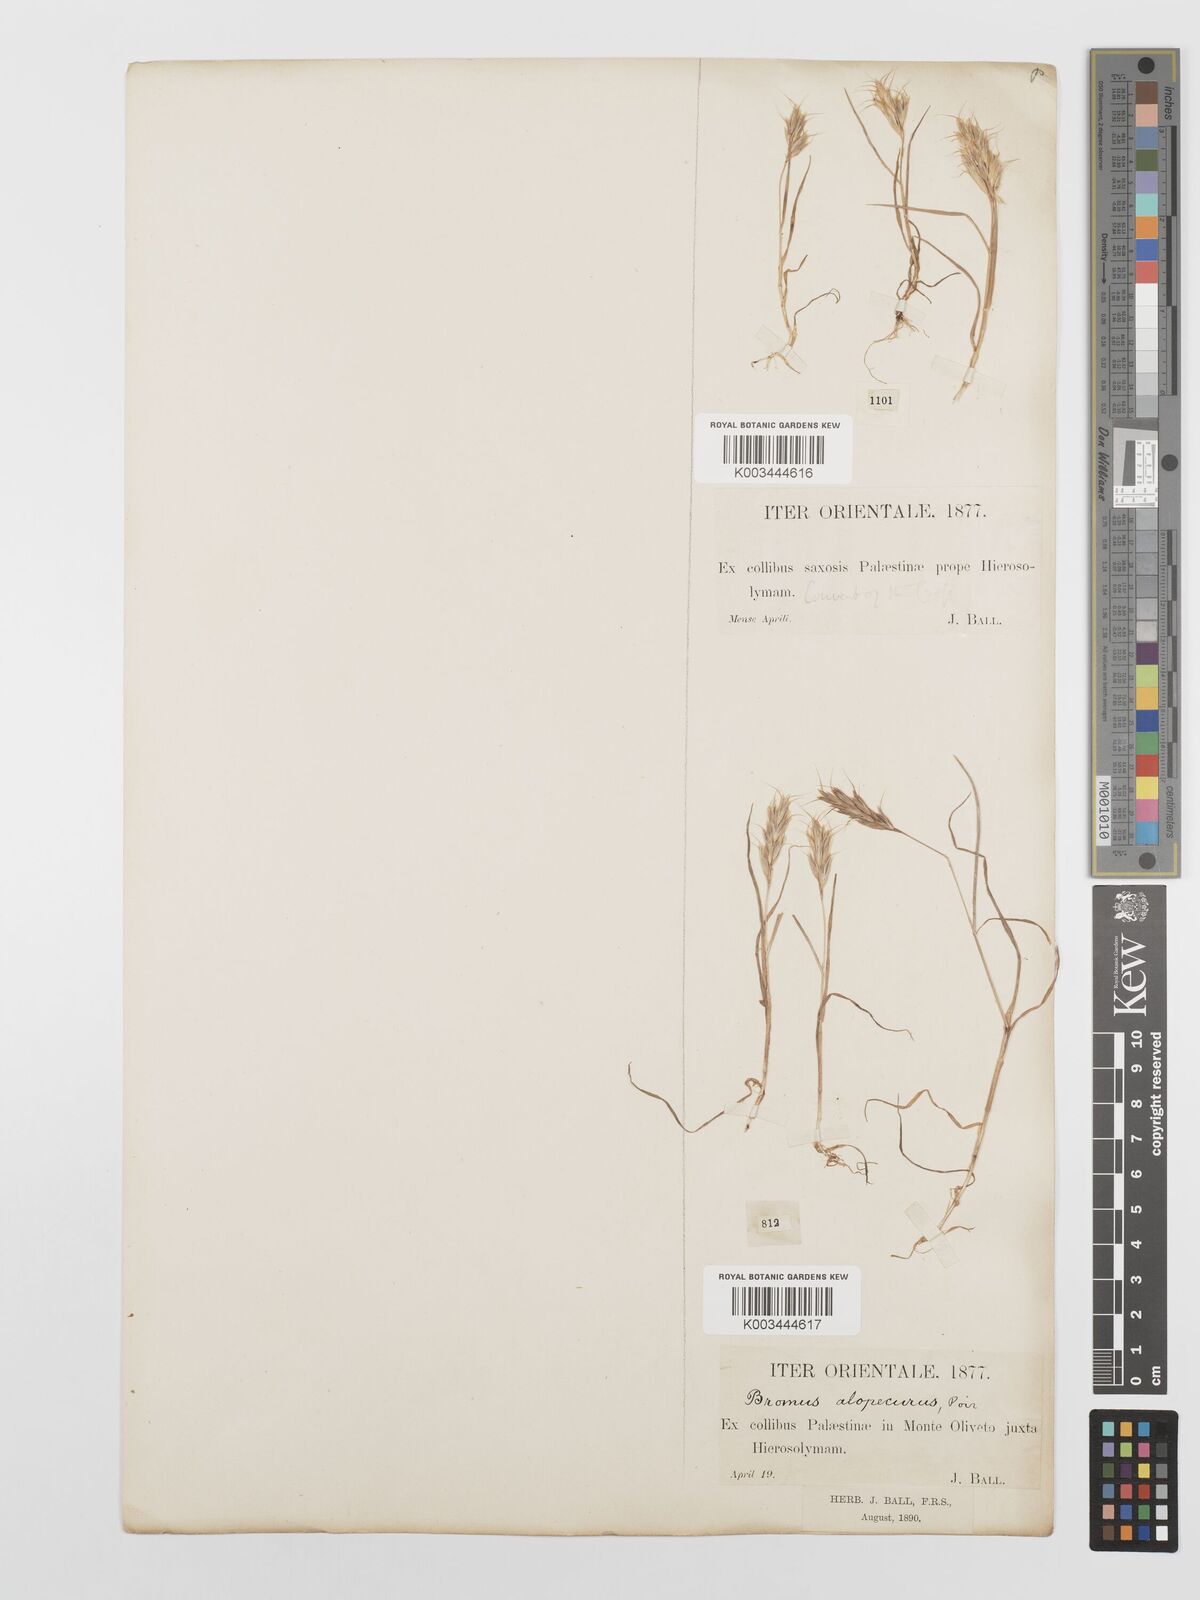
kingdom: Plantae
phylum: Tracheophyta
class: Liliopsida
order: Poales
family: Poaceae
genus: Bromus
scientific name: Bromus scoparius
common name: Broom brome
